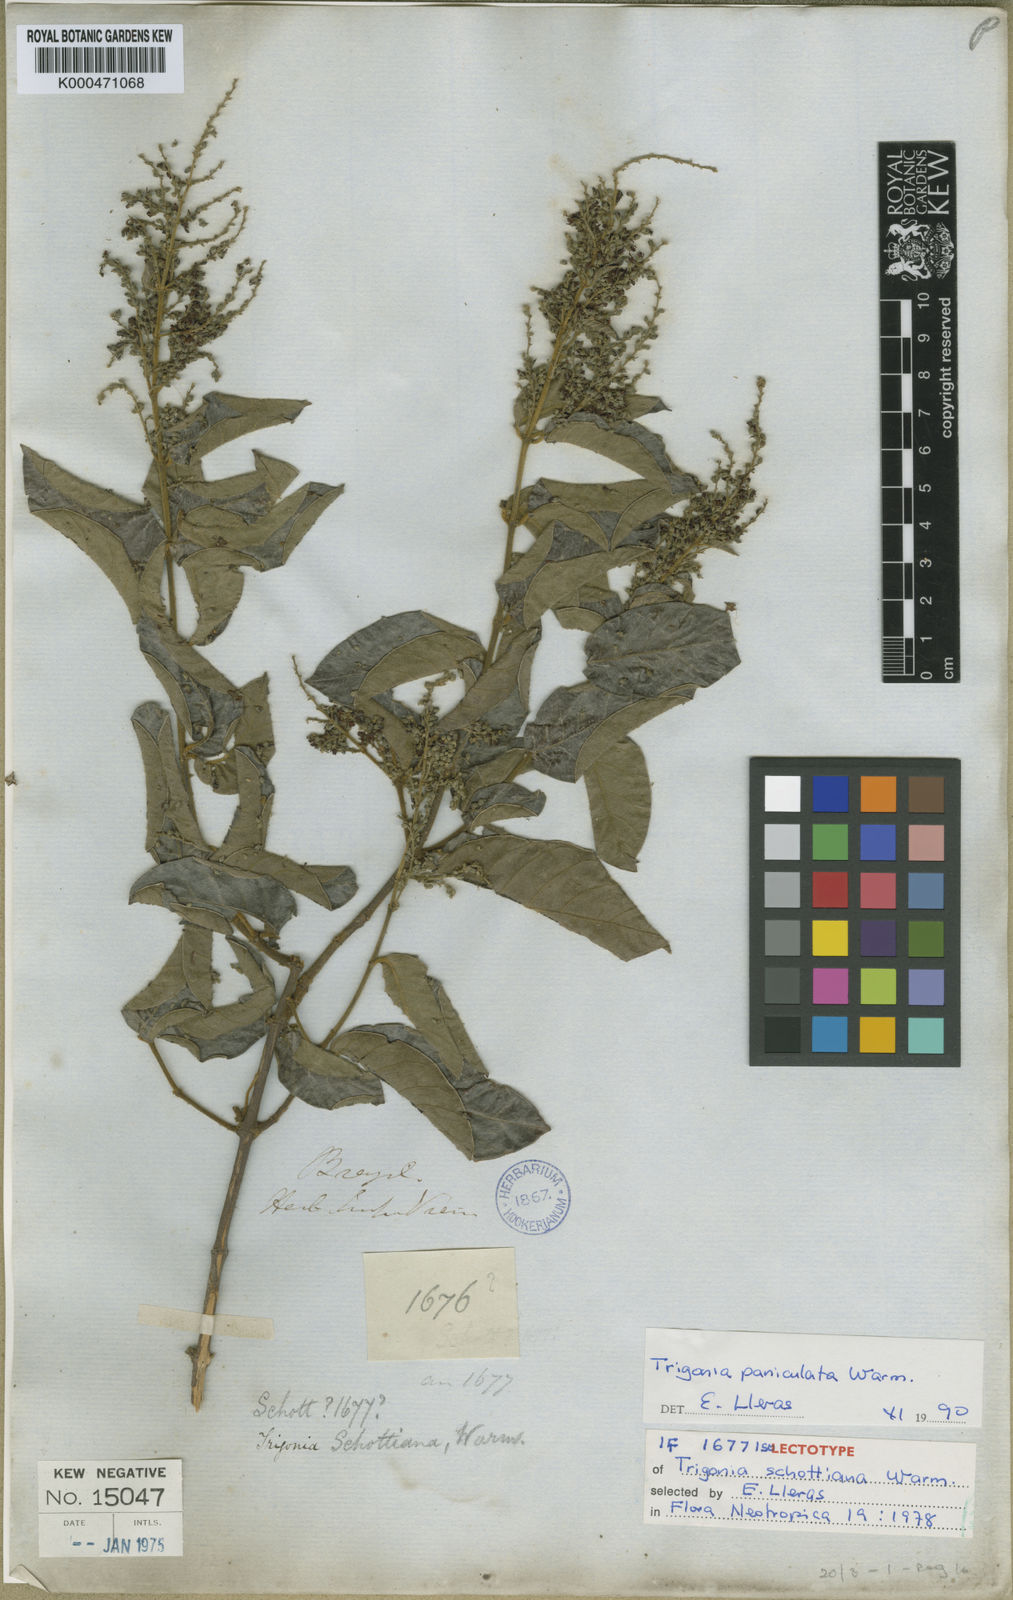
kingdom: Plantae
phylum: Tracheophyta
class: Magnoliopsida
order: Malpighiales
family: Trigoniaceae
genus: Trigonia
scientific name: Trigonia paniculata
